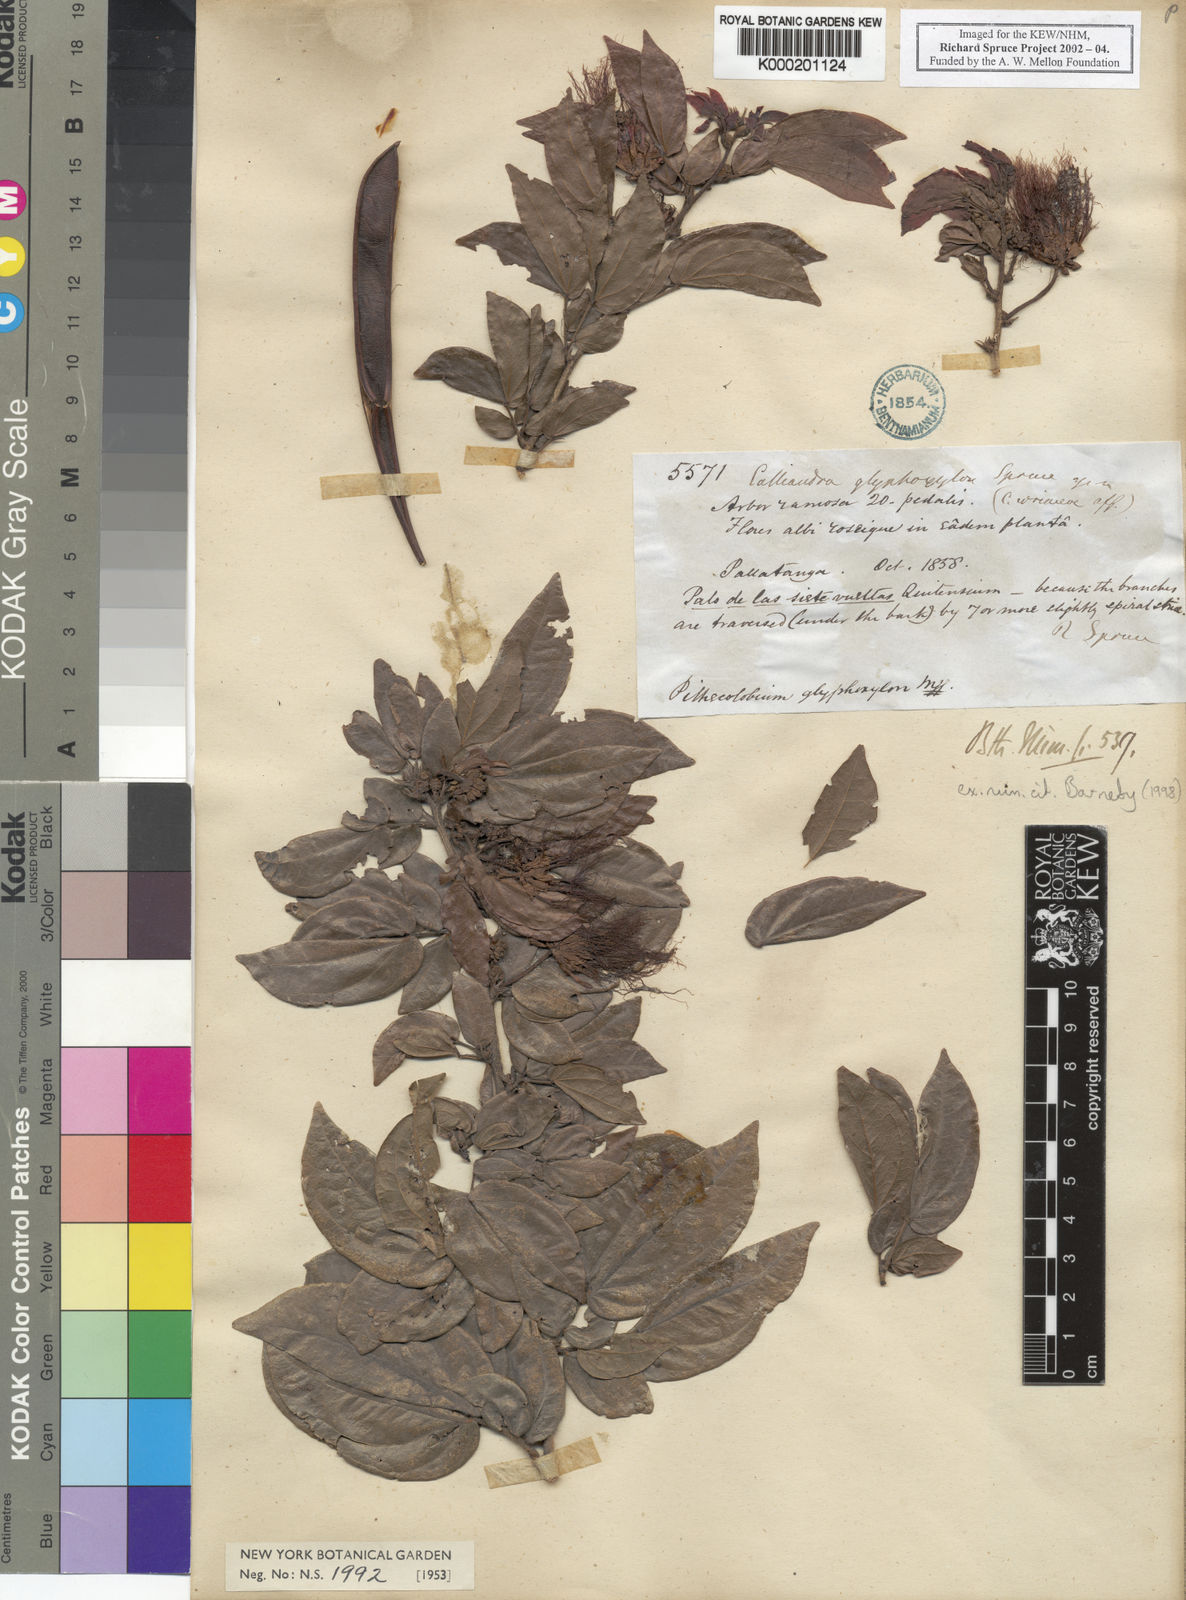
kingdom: Plantae
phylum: Tracheophyta
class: Magnoliopsida
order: Fabales
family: Fabaceae
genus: Calliandra
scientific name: Calliandra glyphoxylon
